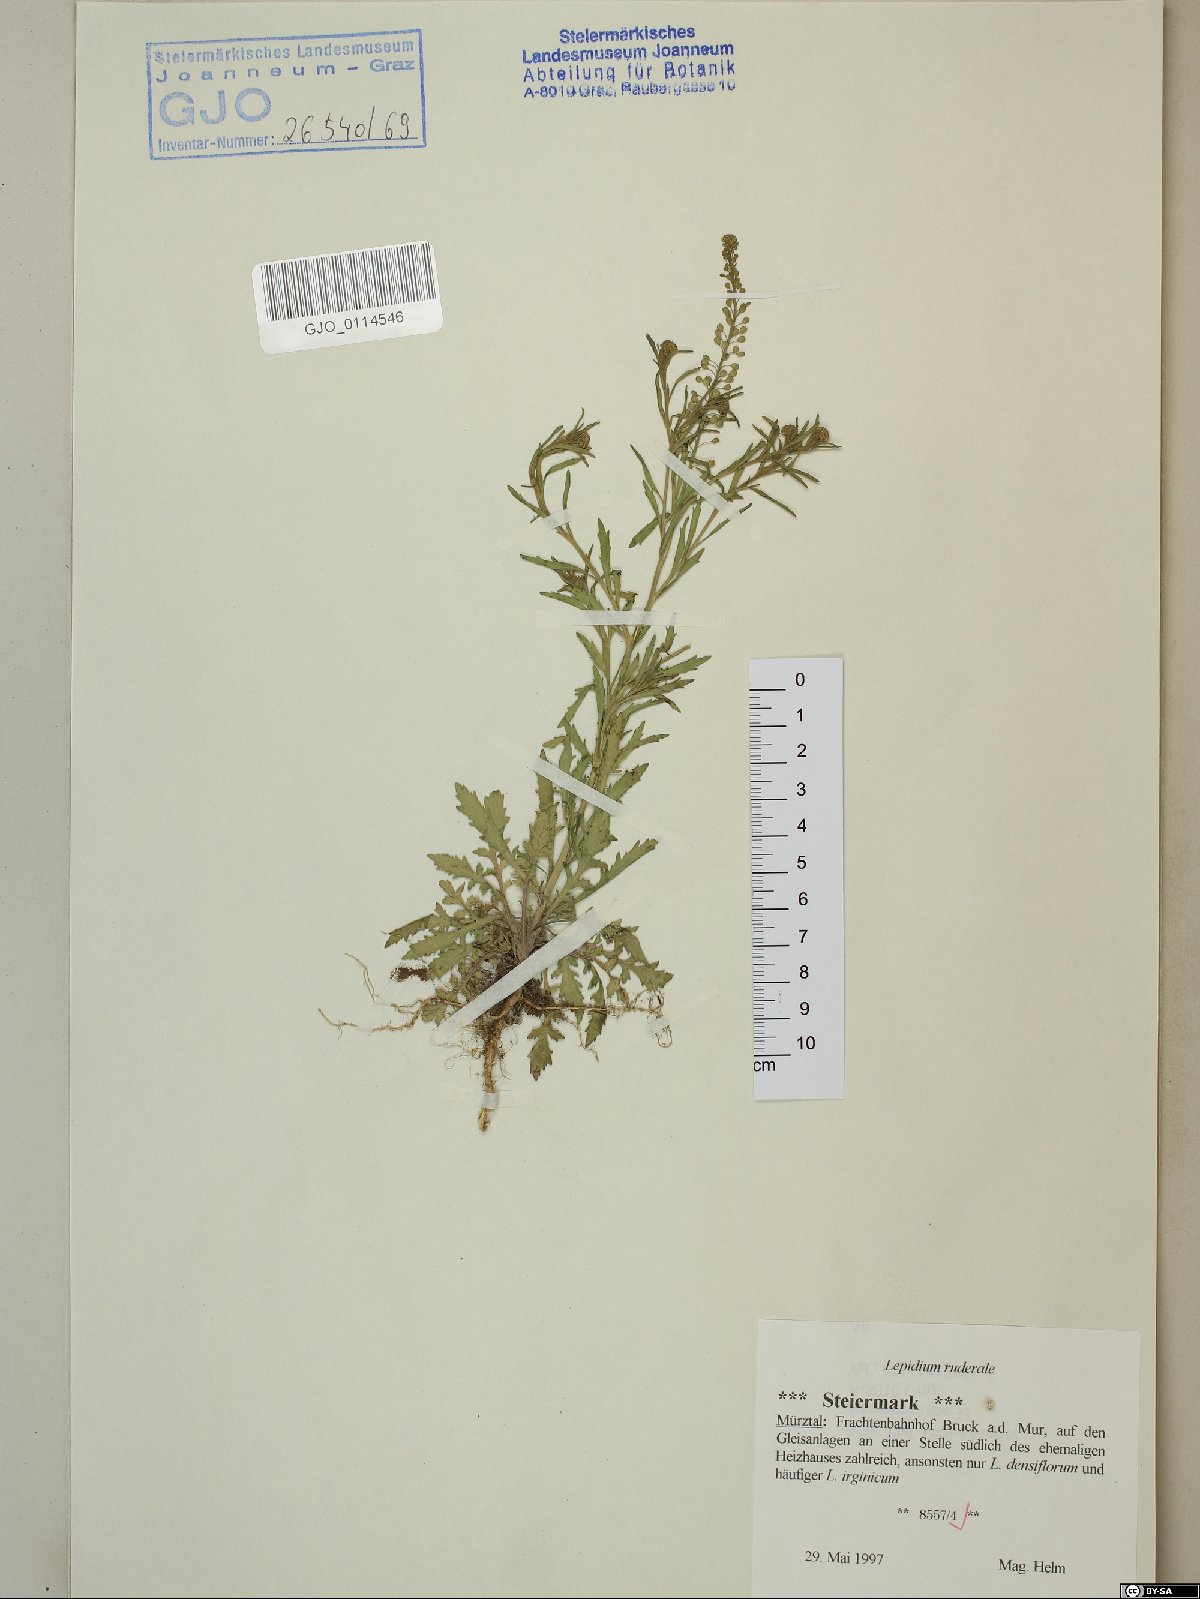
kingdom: Plantae
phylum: Tracheophyta
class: Magnoliopsida
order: Brassicales
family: Brassicaceae
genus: Lepidium
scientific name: Lepidium ruderale
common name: Narrow-leaved pepperwort
